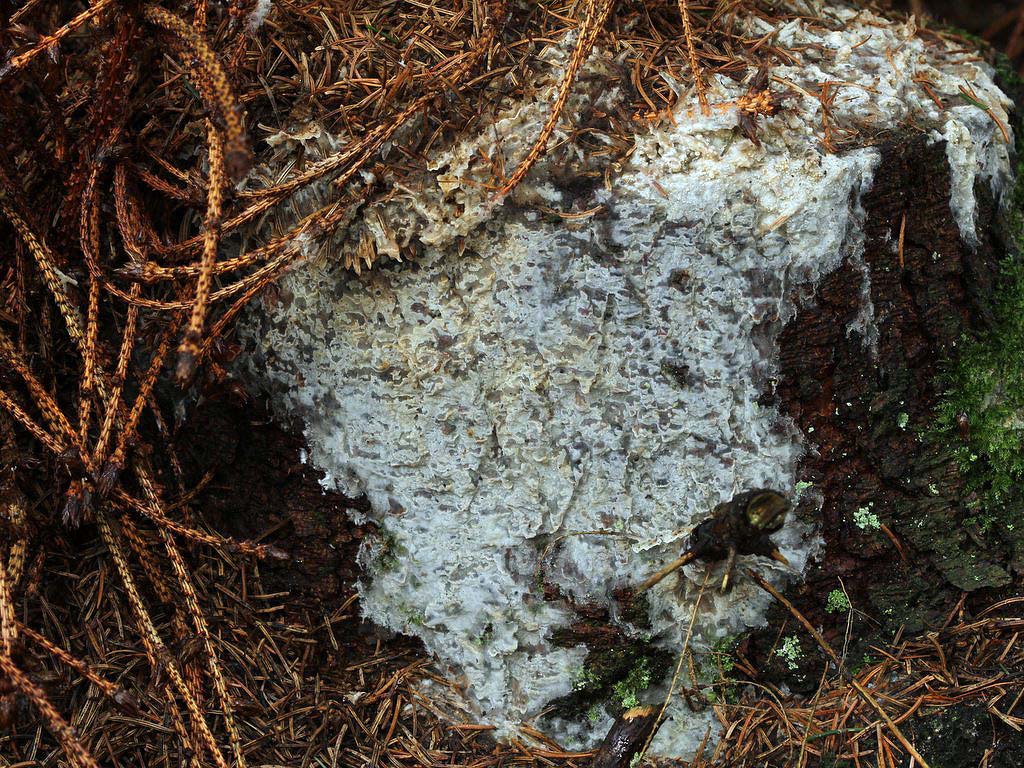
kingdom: Fungi
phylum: Basidiomycota
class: Agaricomycetes
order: Polyporales
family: Phanerochaetaceae
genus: Phlebiopsis
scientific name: Phlebiopsis gigantea
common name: kæmpebarksvamp
